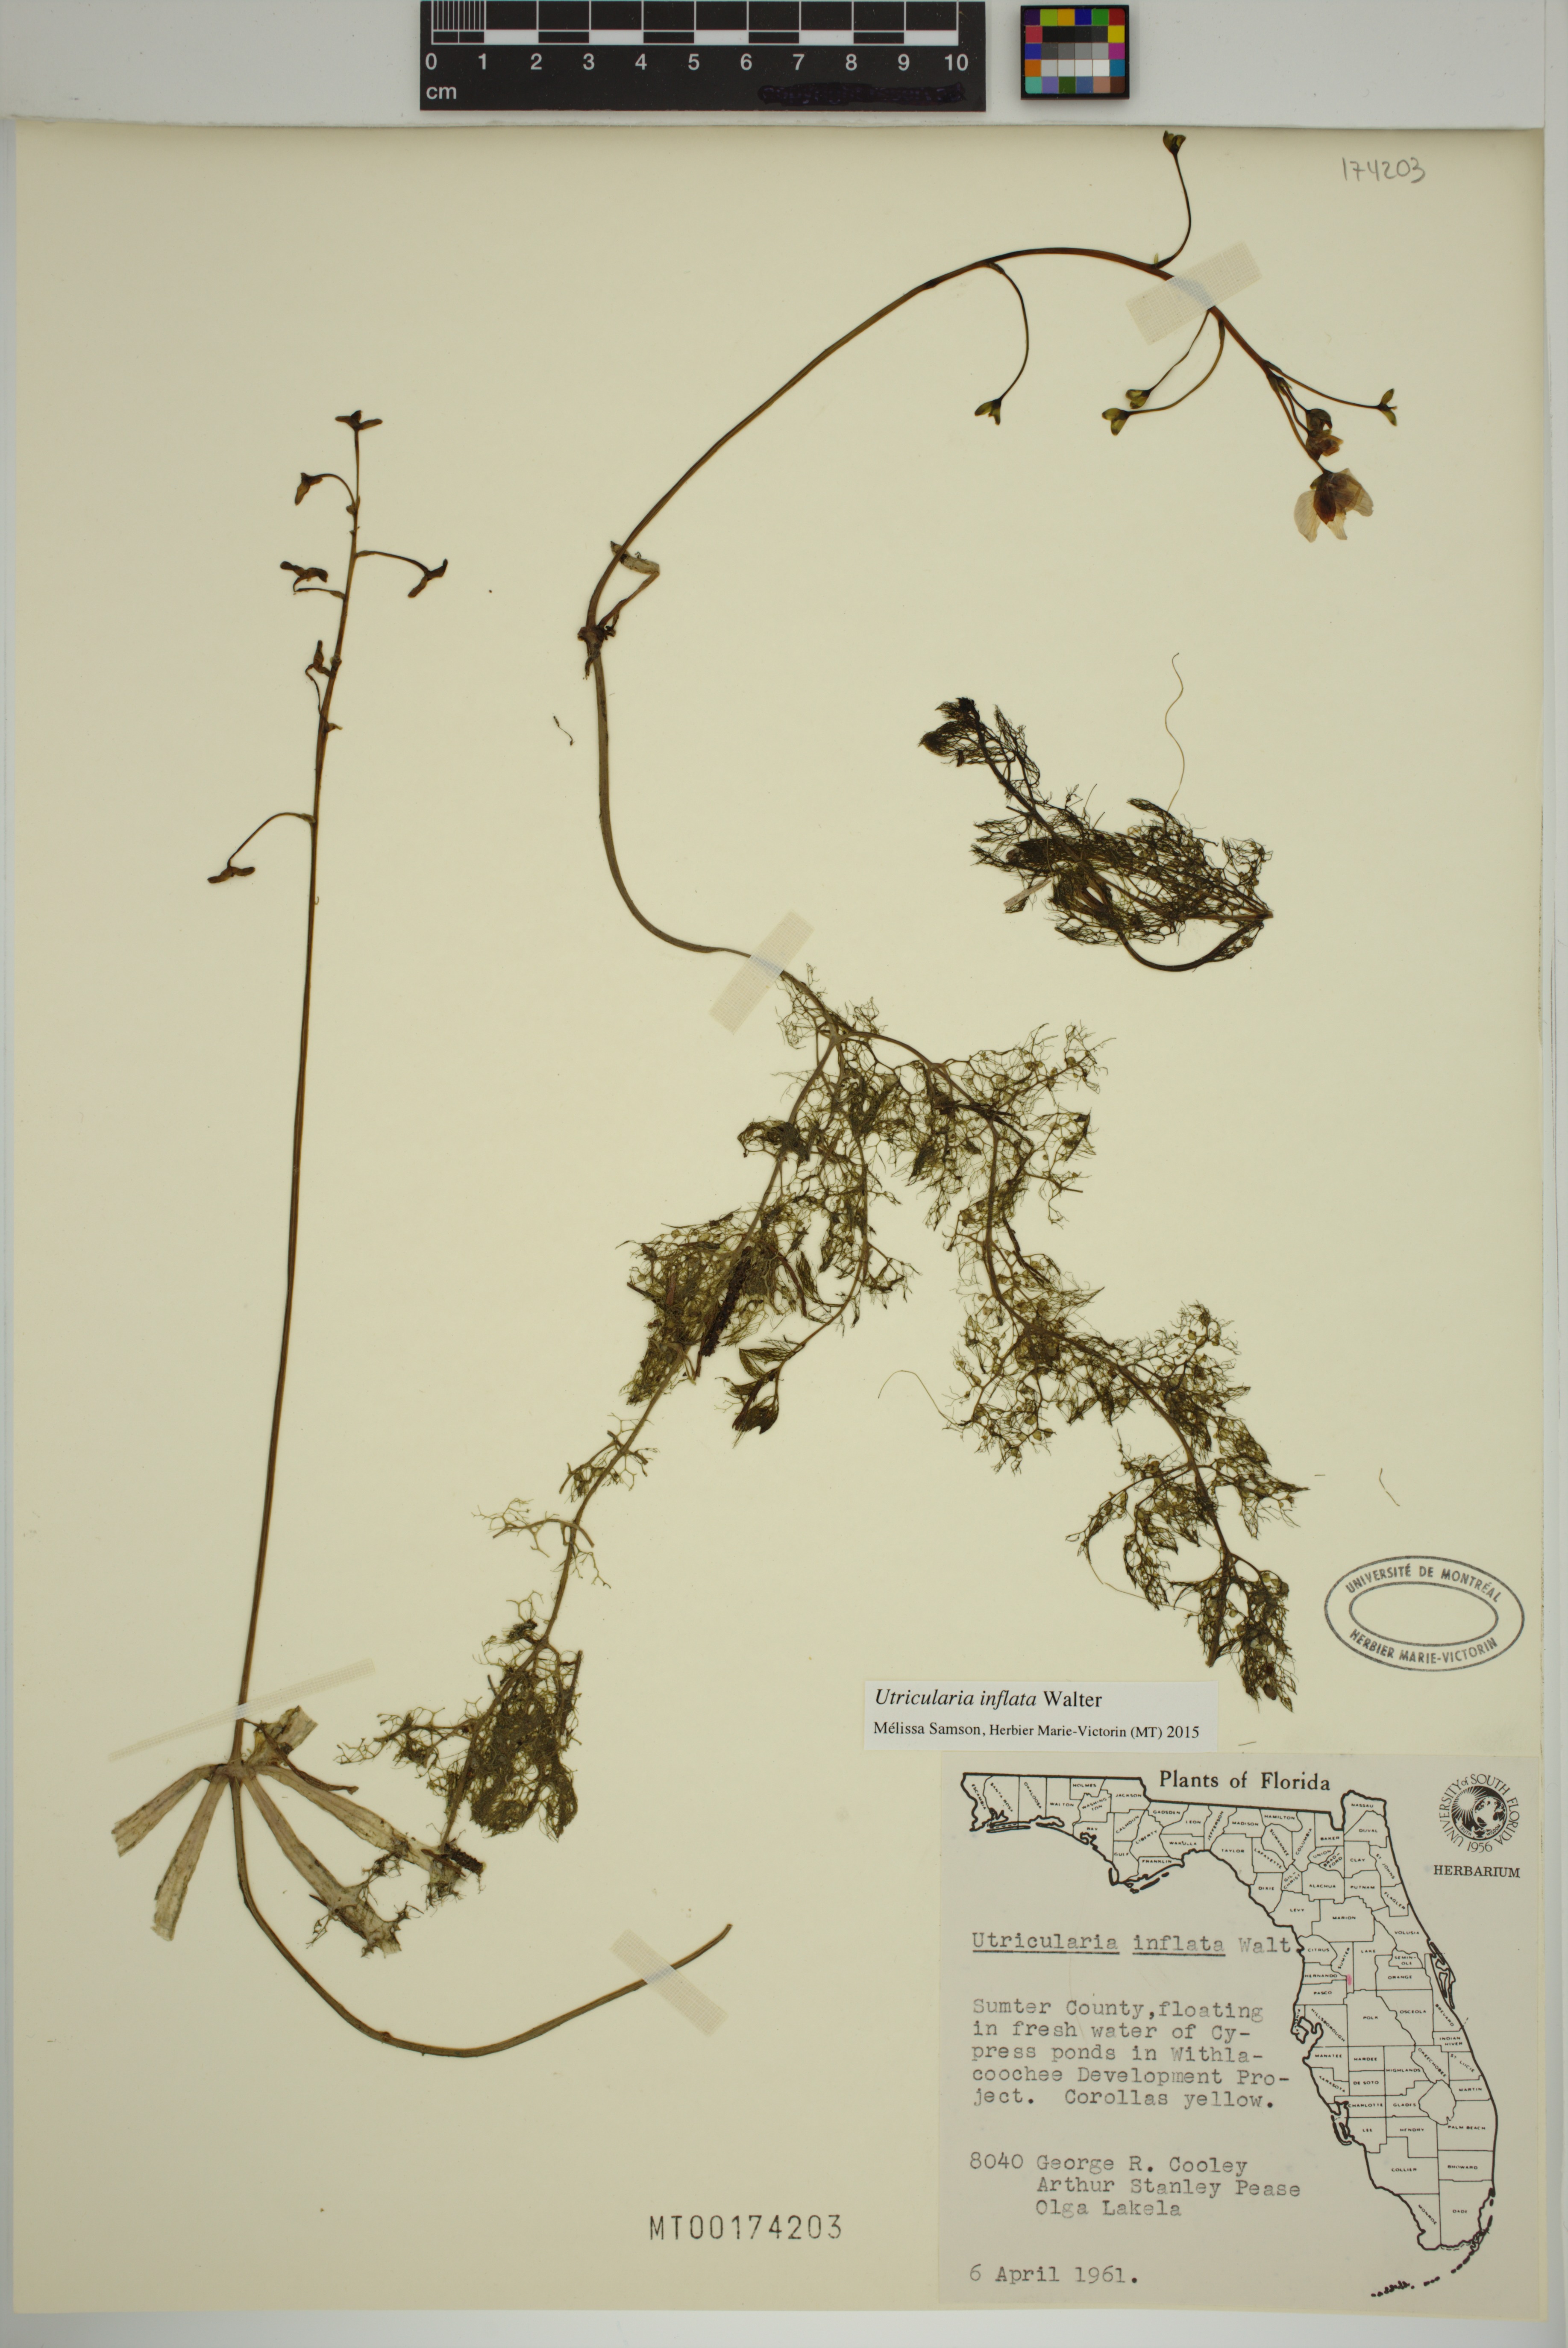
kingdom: Plantae
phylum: Tracheophyta
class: Magnoliopsida
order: Lamiales
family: Lentibulariaceae
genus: Utricularia
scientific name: Utricularia inflata
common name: Floating bladderwort
